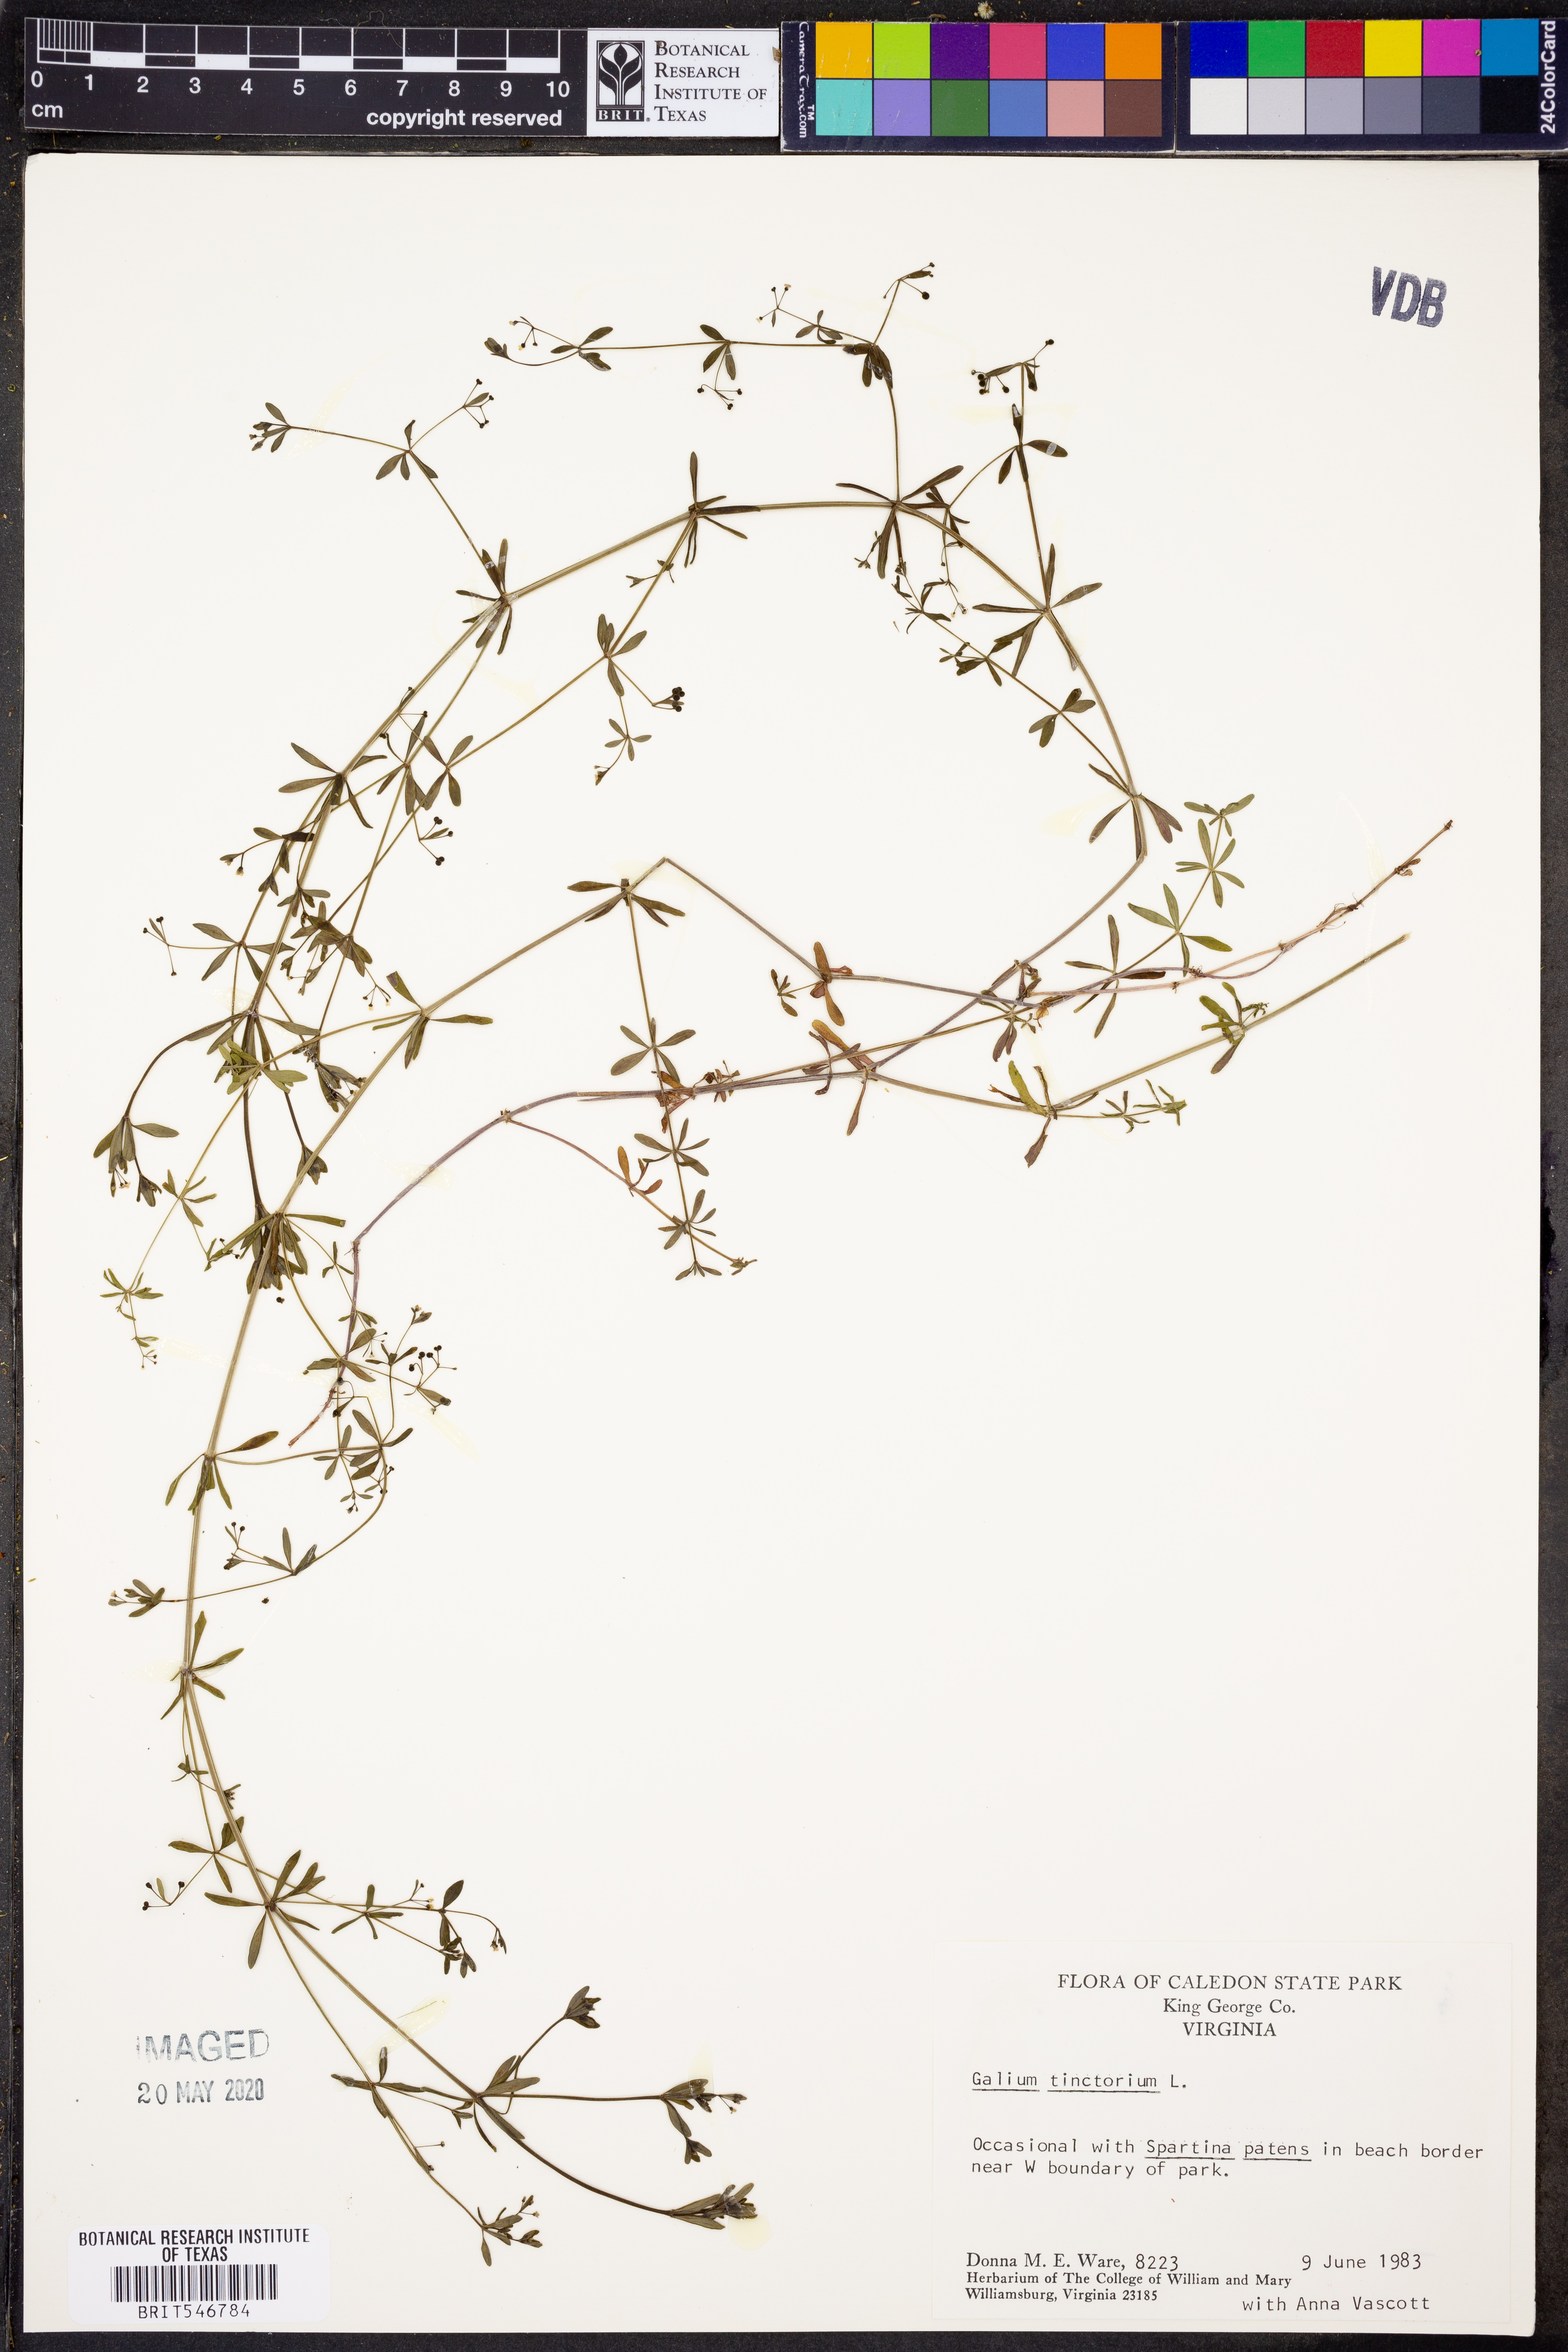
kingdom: Plantae
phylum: Tracheophyta
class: Magnoliopsida
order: Gentianales
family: Rubiaceae
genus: Asperula
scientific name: Asperula tinctoria
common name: Dyer's woodruff
